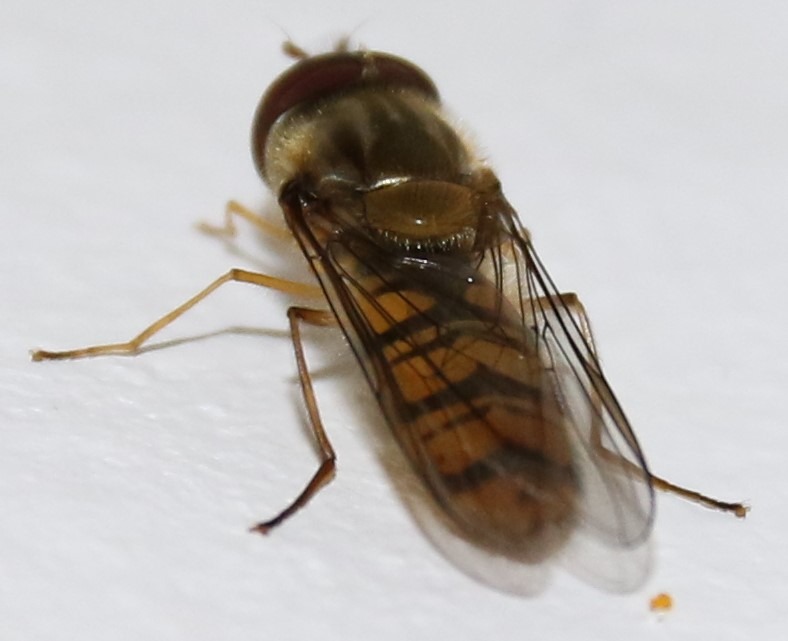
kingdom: Animalia
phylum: Arthropoda
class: Insecta
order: Diptera
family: Syrphidae
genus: Episyrphus
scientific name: Episyrphus balteatus
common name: Dobbeltbåndet svirreflue
